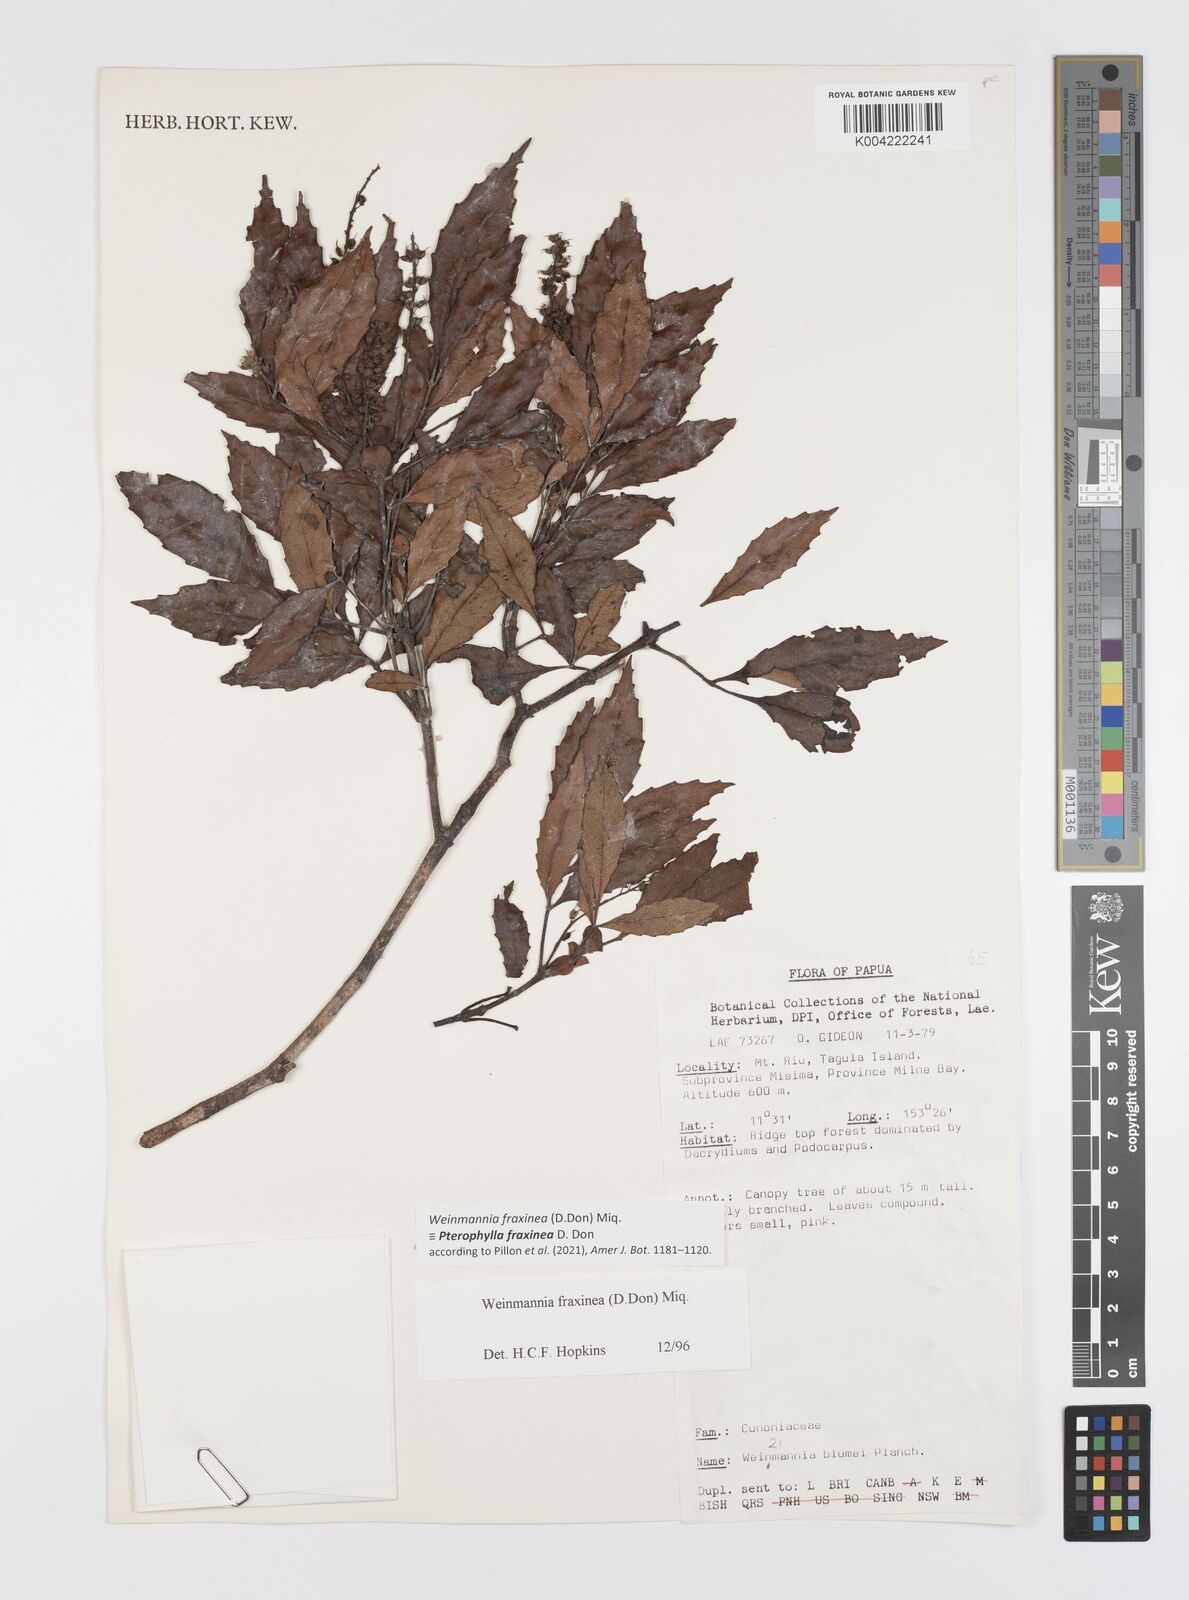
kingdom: Plantae
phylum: Tracheophyta
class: Magnoliopsida
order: Oxalidales
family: Cunoniaceae
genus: Pterophylla
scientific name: Pterophylla fraxinea
